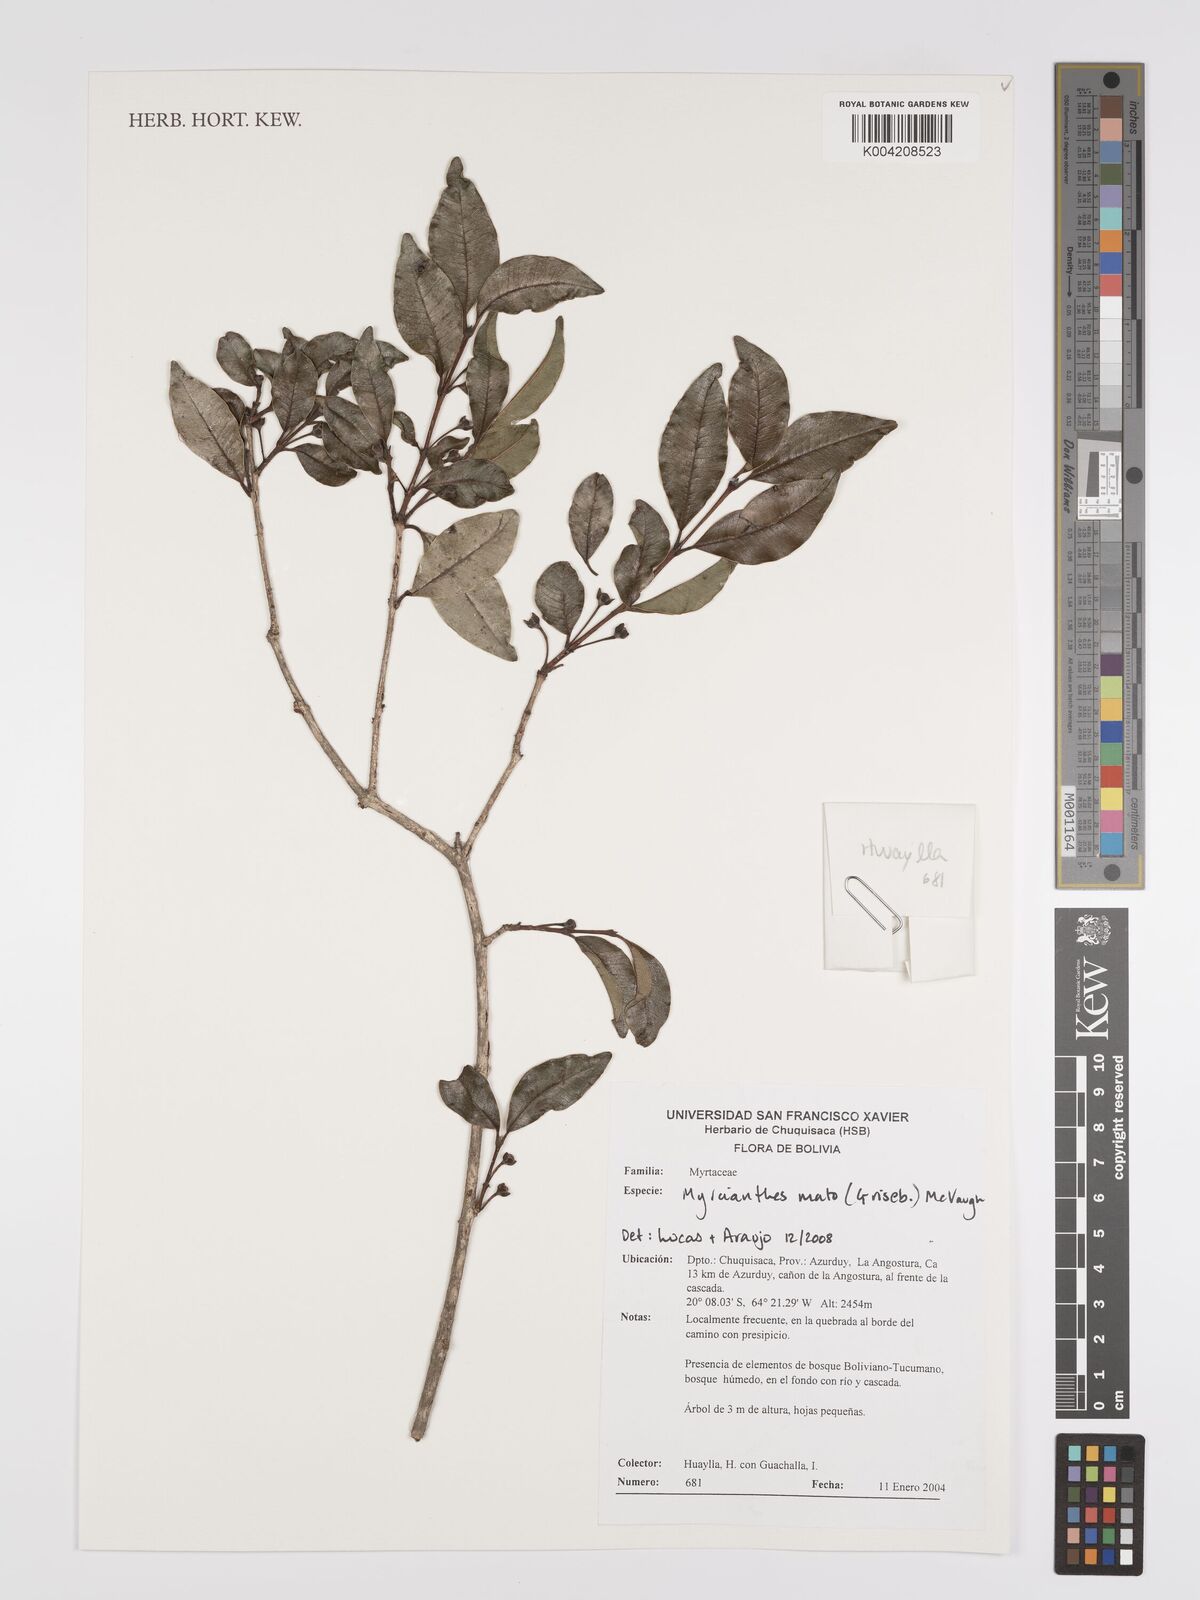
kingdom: Plantae
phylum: Tracheophyta
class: Magnoliopsida
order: Myrtales
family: Myrtaceae
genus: Myrcianthes
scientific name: Myrcianthes mato
